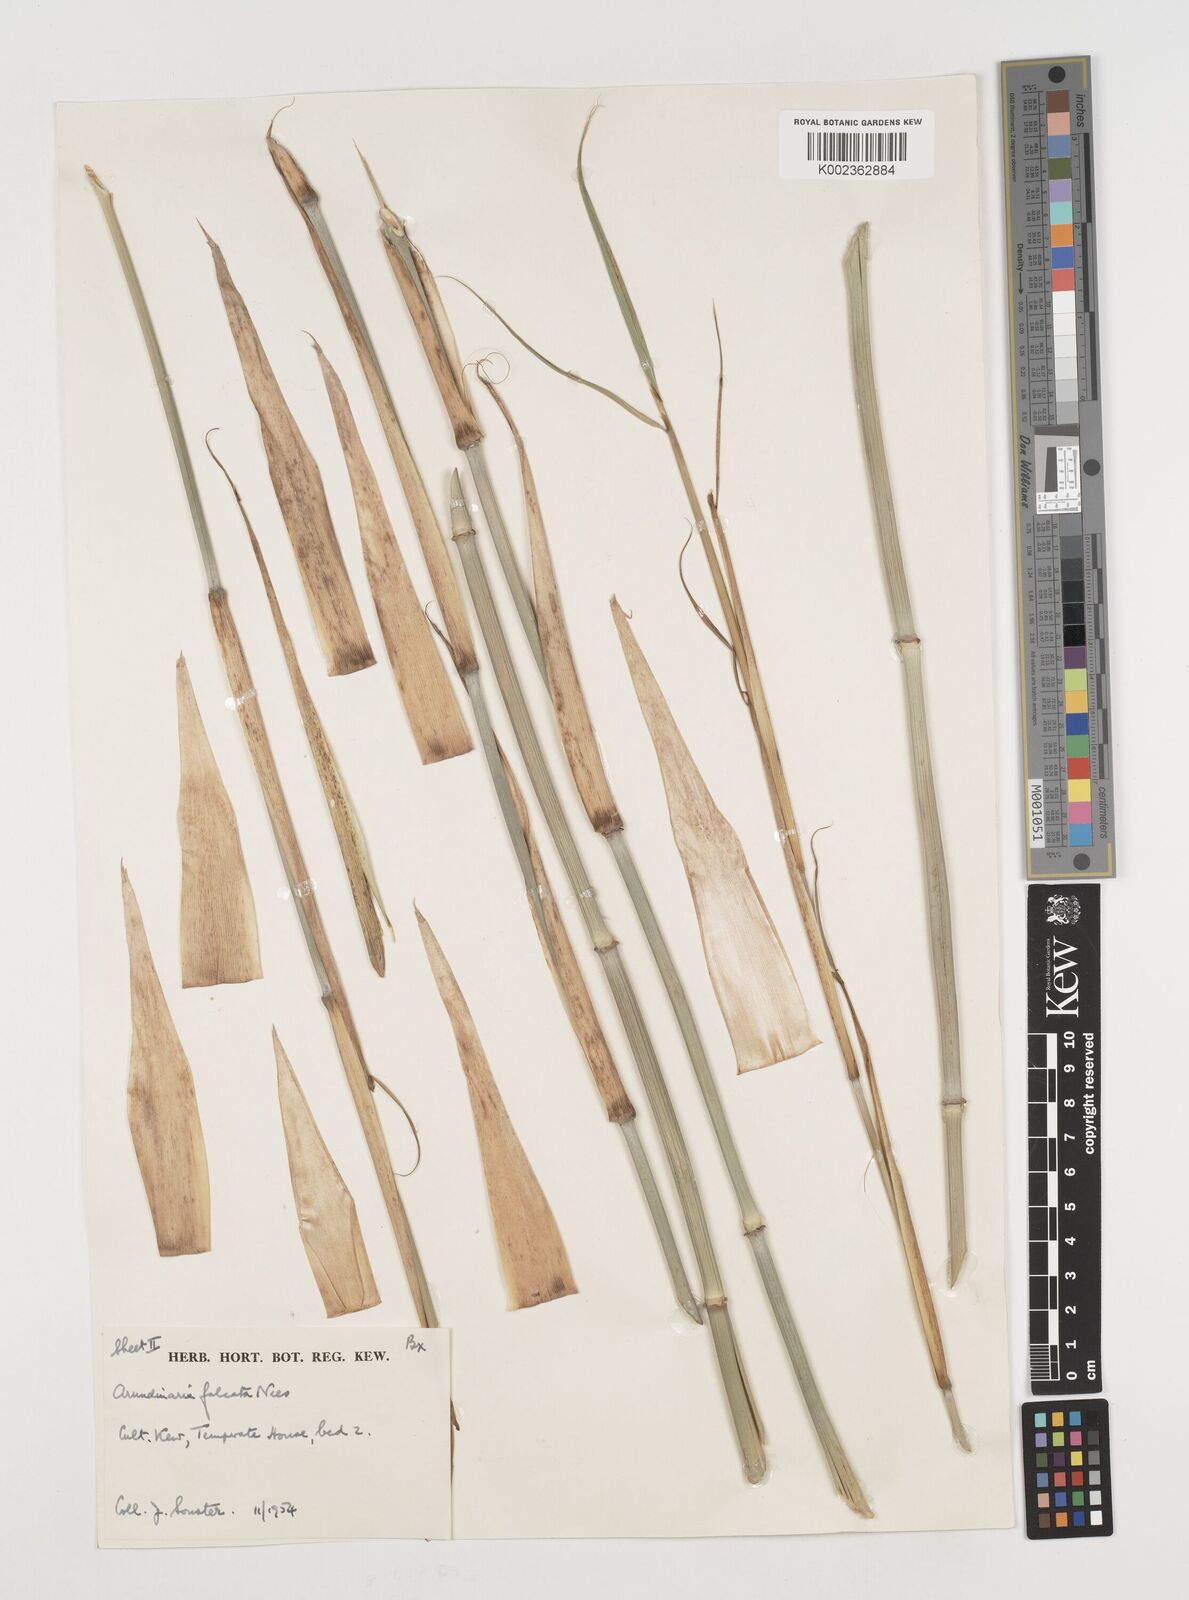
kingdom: Plantae
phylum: Tracheophyta
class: Liliopsida
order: Poales
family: Poaceae
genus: Drepanostachyum
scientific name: Drepanostachyum falcatum
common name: Himalayan bamboo
